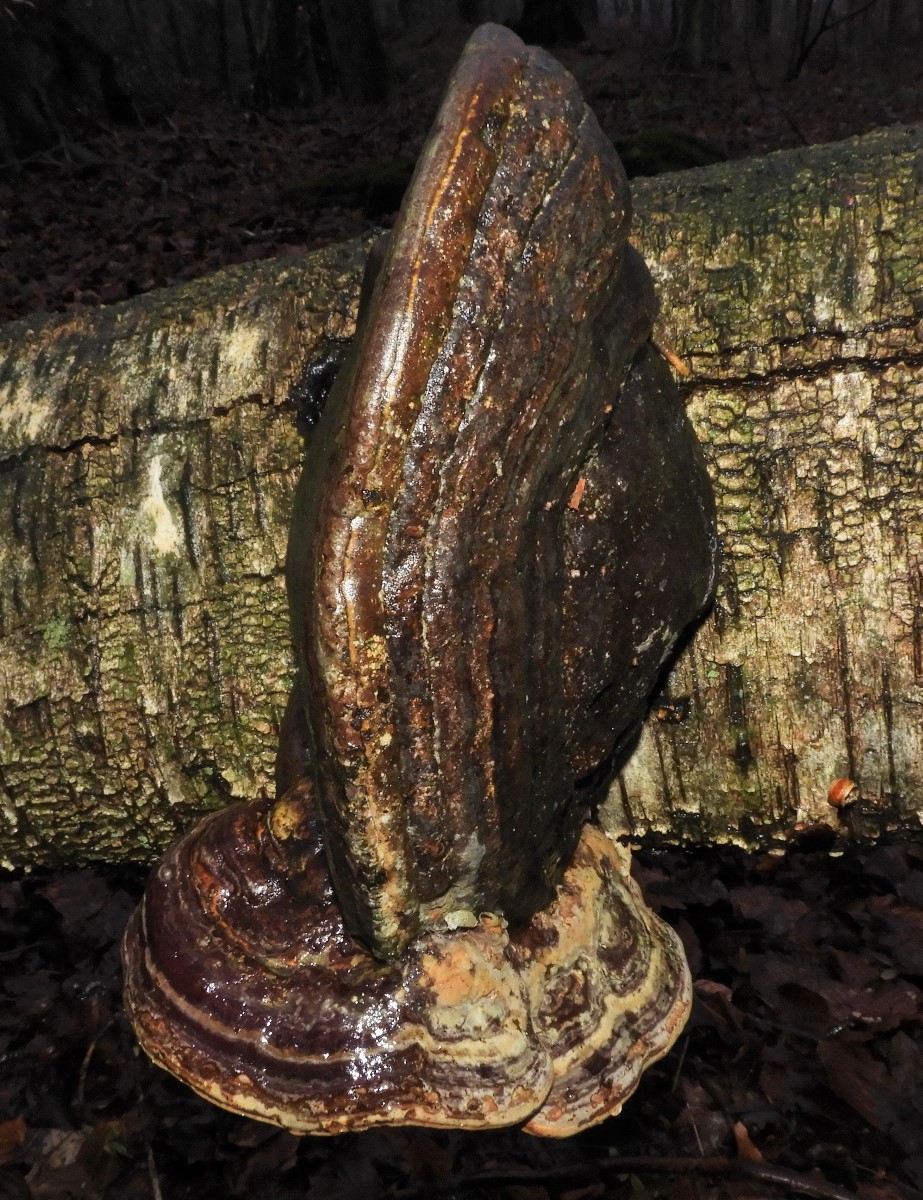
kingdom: Fungi
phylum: Basidiomycota
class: Agaricomycetes
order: Polyporales
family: Polyporaceae
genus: Fomes
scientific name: Fomes fomentarius
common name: tøndersvamp
